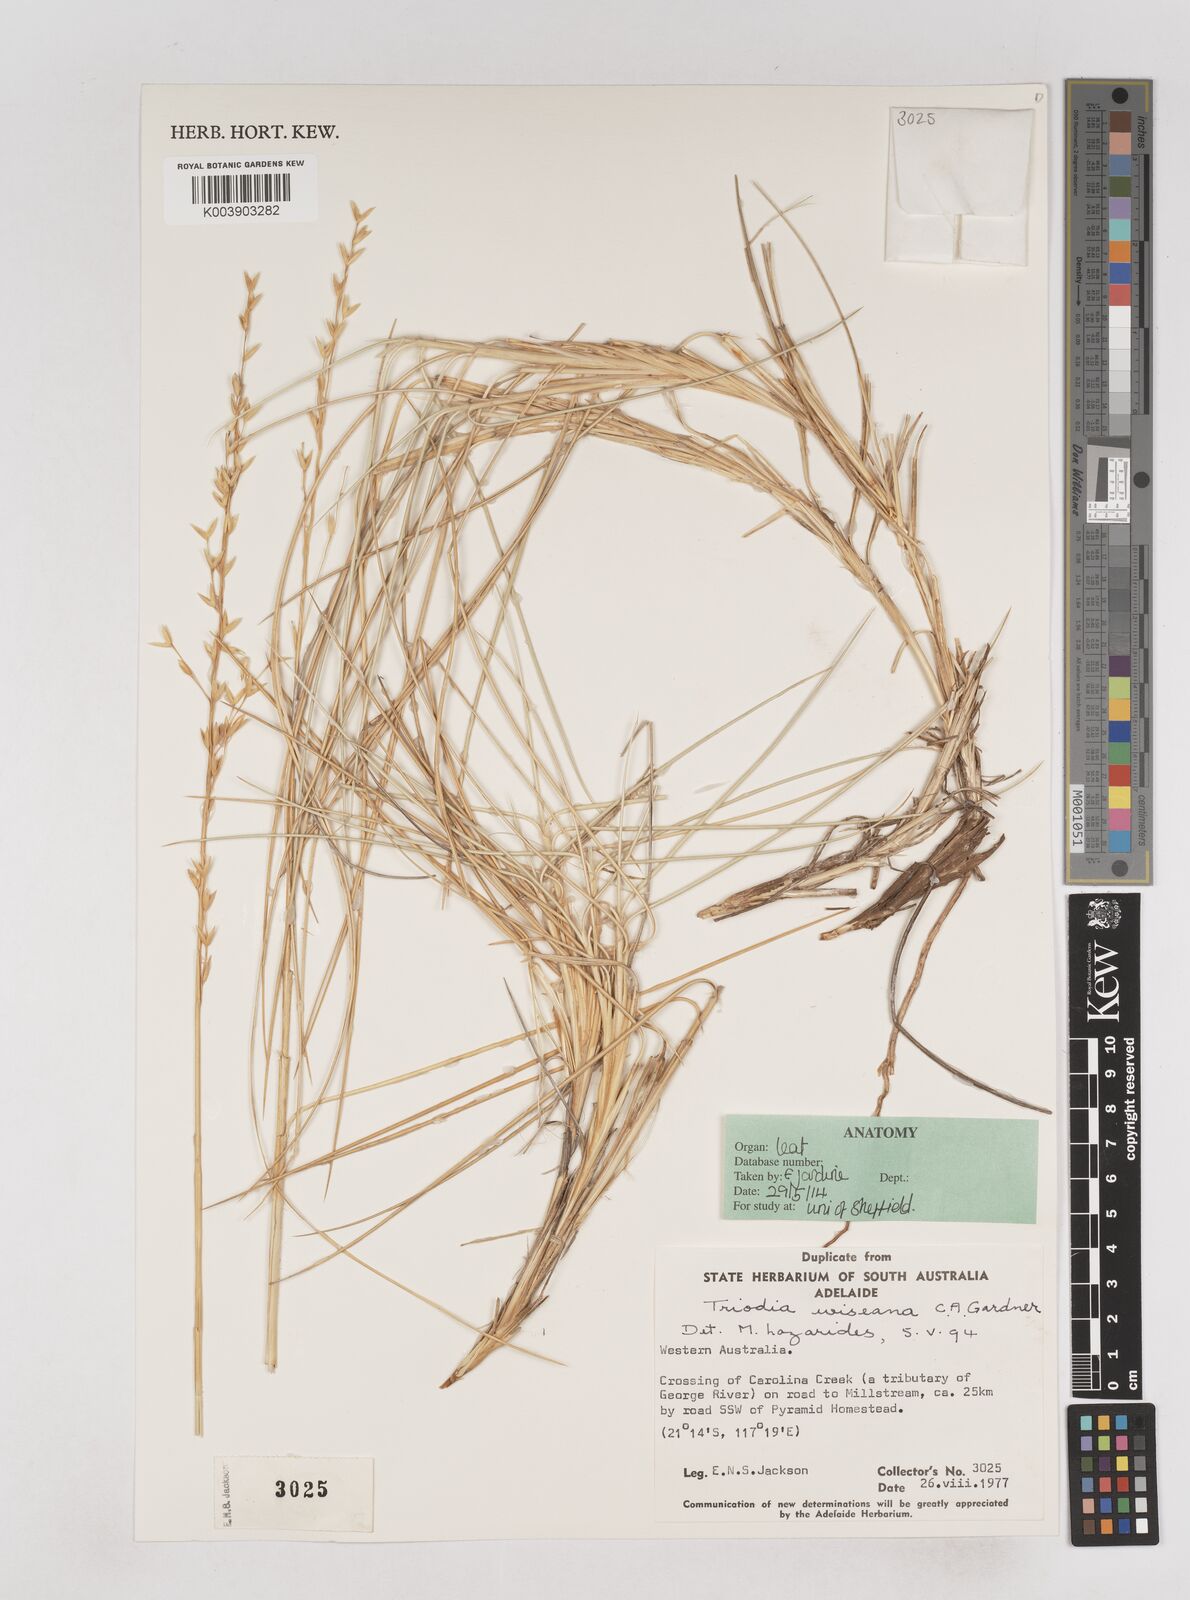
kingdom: Plantae
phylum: Tracheophyta
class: Liliopsida
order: Poales
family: Poaceae
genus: Triodia
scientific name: Triodia wiseana
